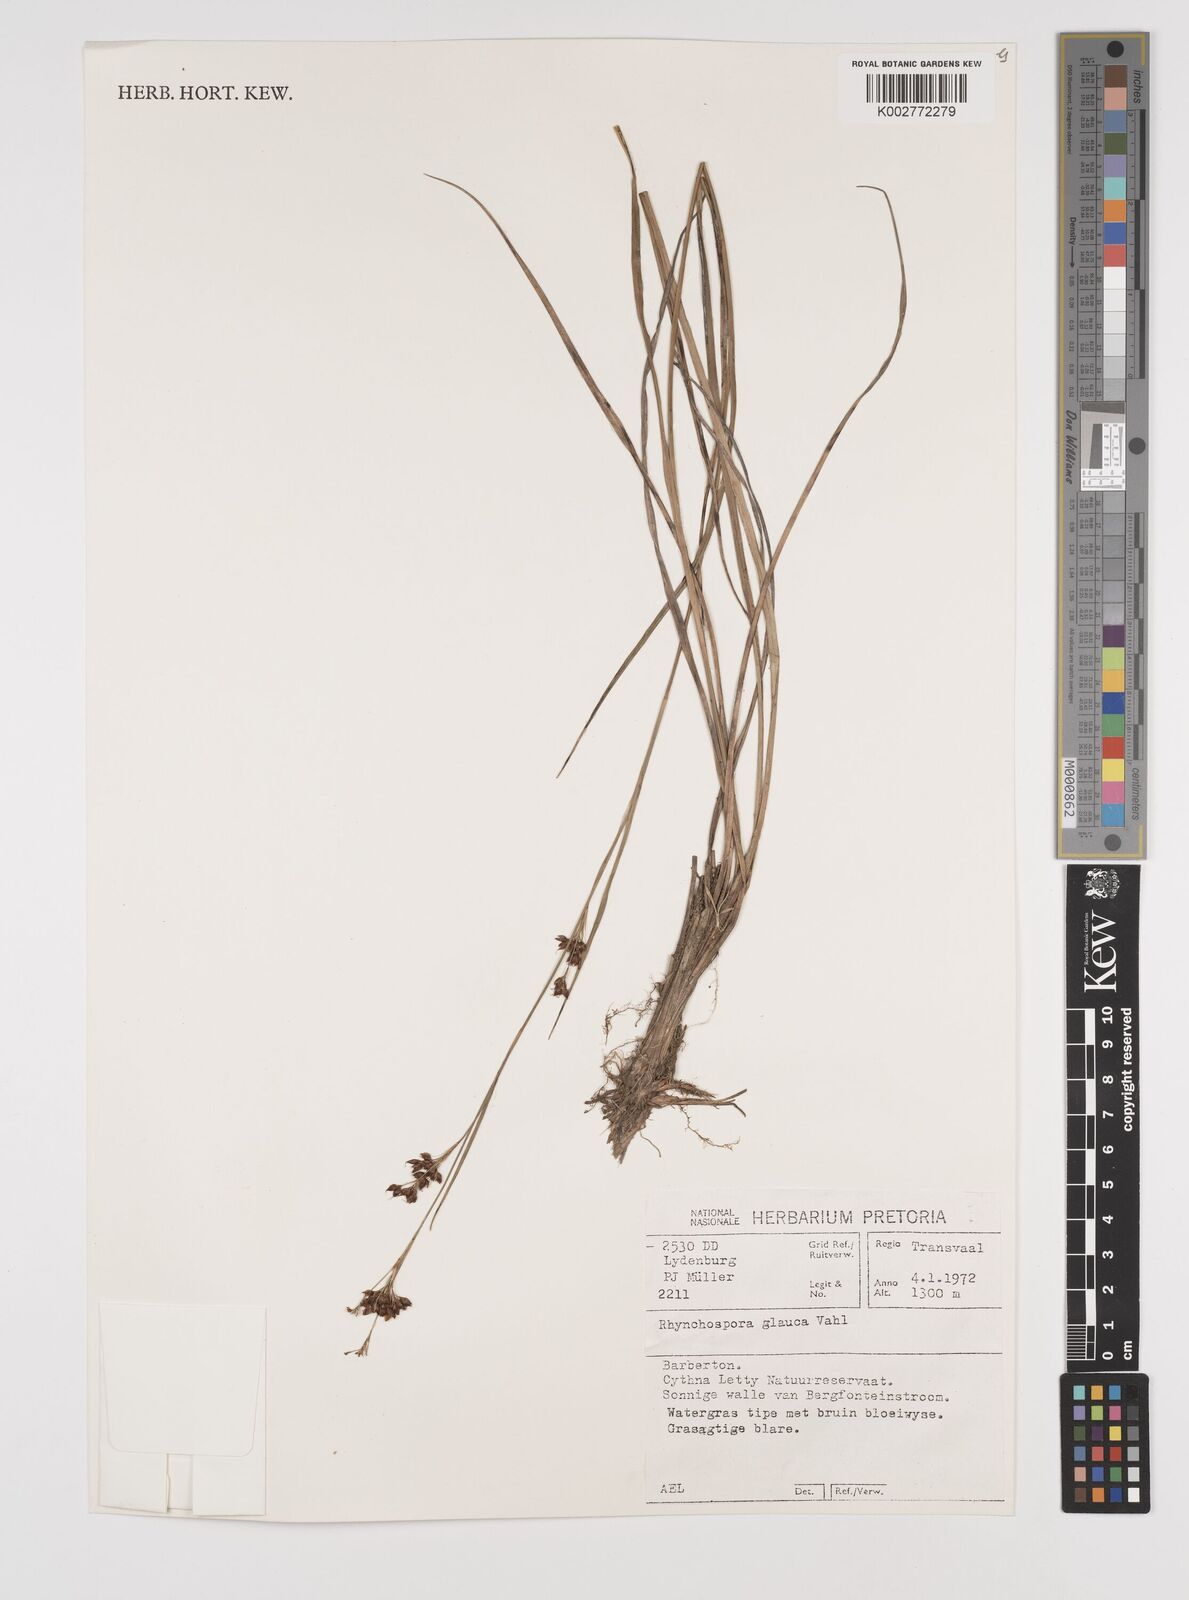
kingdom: Plantae
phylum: Tracheophyta
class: Liliopsida
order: Poales
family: Cyperaceae
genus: Rhynchospora
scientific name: Rhynchospora rugosa
